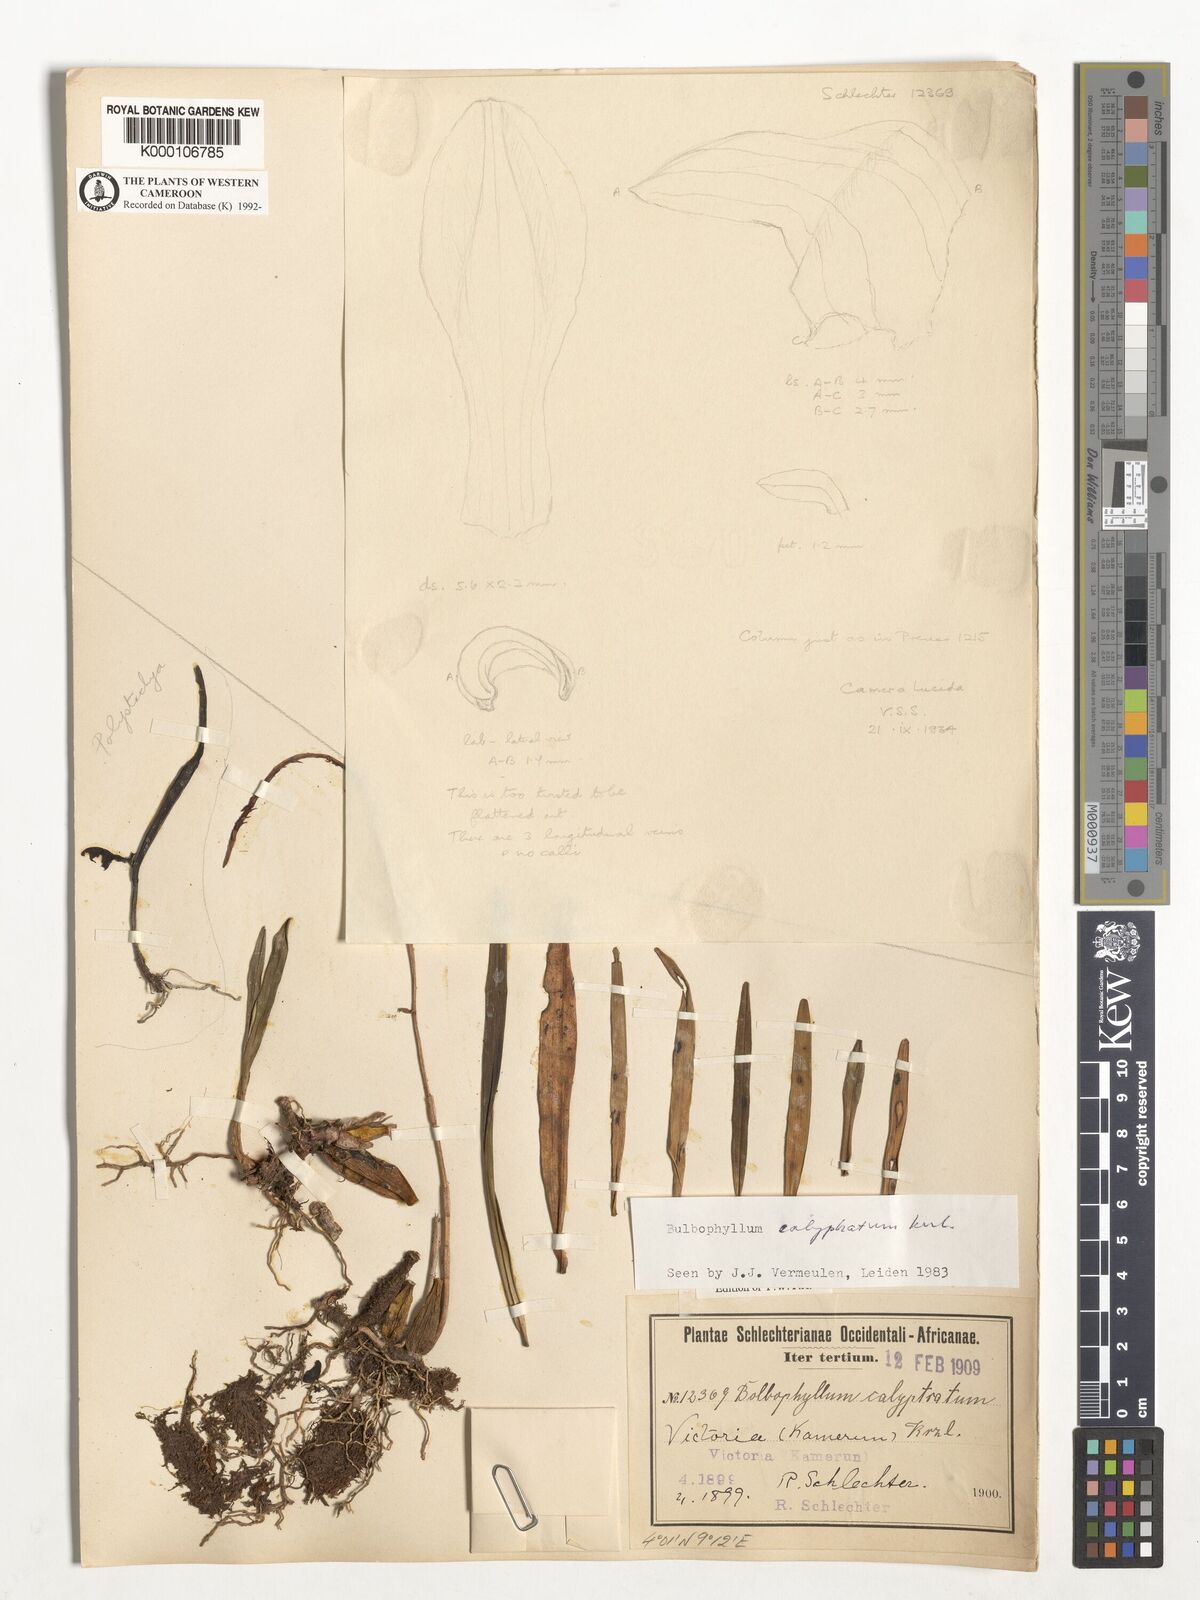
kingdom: Plantae
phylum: Tracheophyta
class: Liliopsida
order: Asparagales
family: Orchidaceae
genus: Bulbophyllum
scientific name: Bulbophyllum calyptratum
